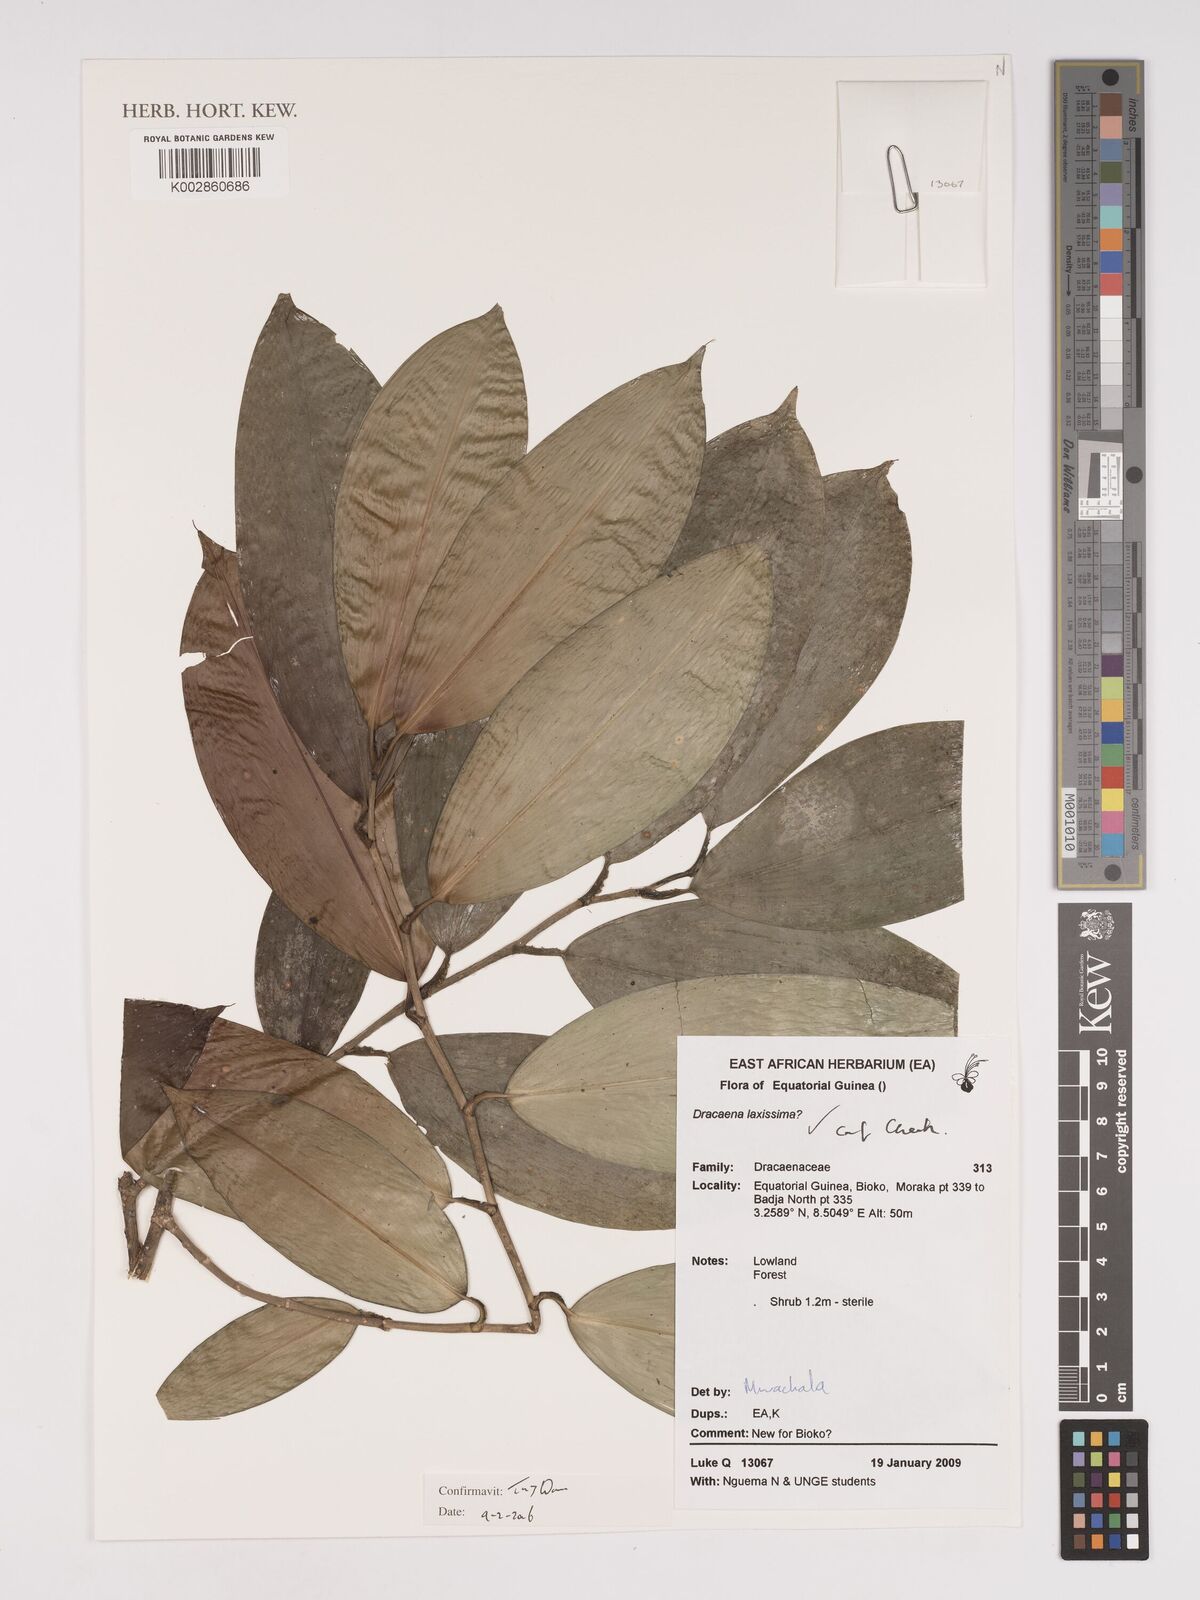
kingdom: Plantae
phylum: Tracheophyta
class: Liliopsida
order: Asparagales
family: Asparagaceae
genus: Dracaena
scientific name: Dracaena laxissima
